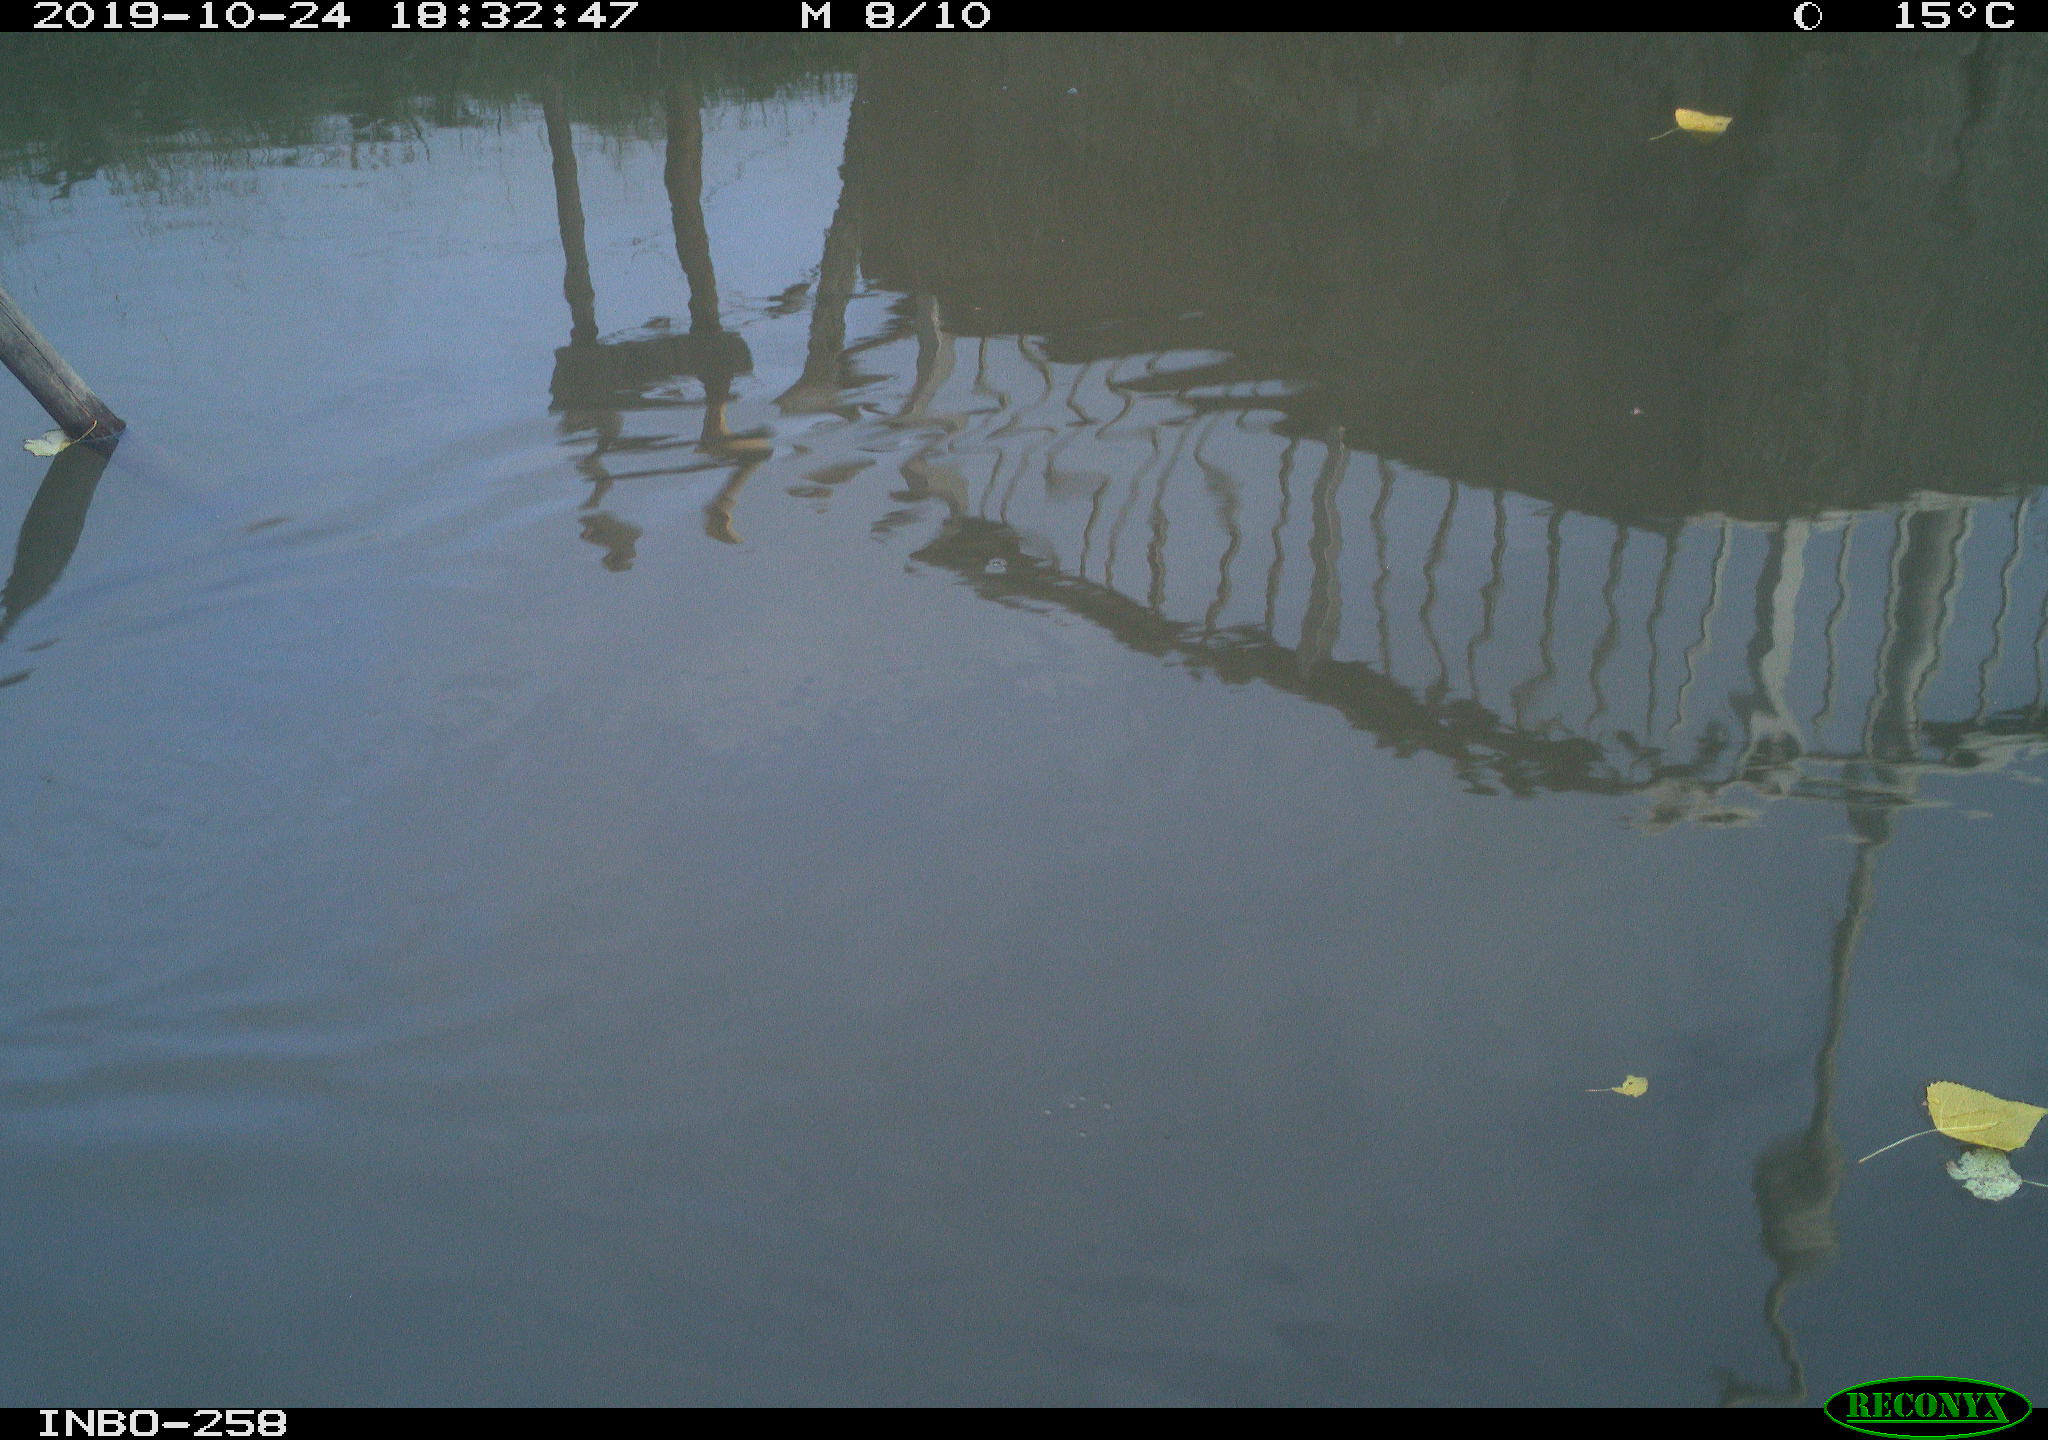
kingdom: Animalia
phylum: Chordata
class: Aves
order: Gruiformes
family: Rallidae
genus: Gallinula
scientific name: Gallinula chloropus
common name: Common moorhen
